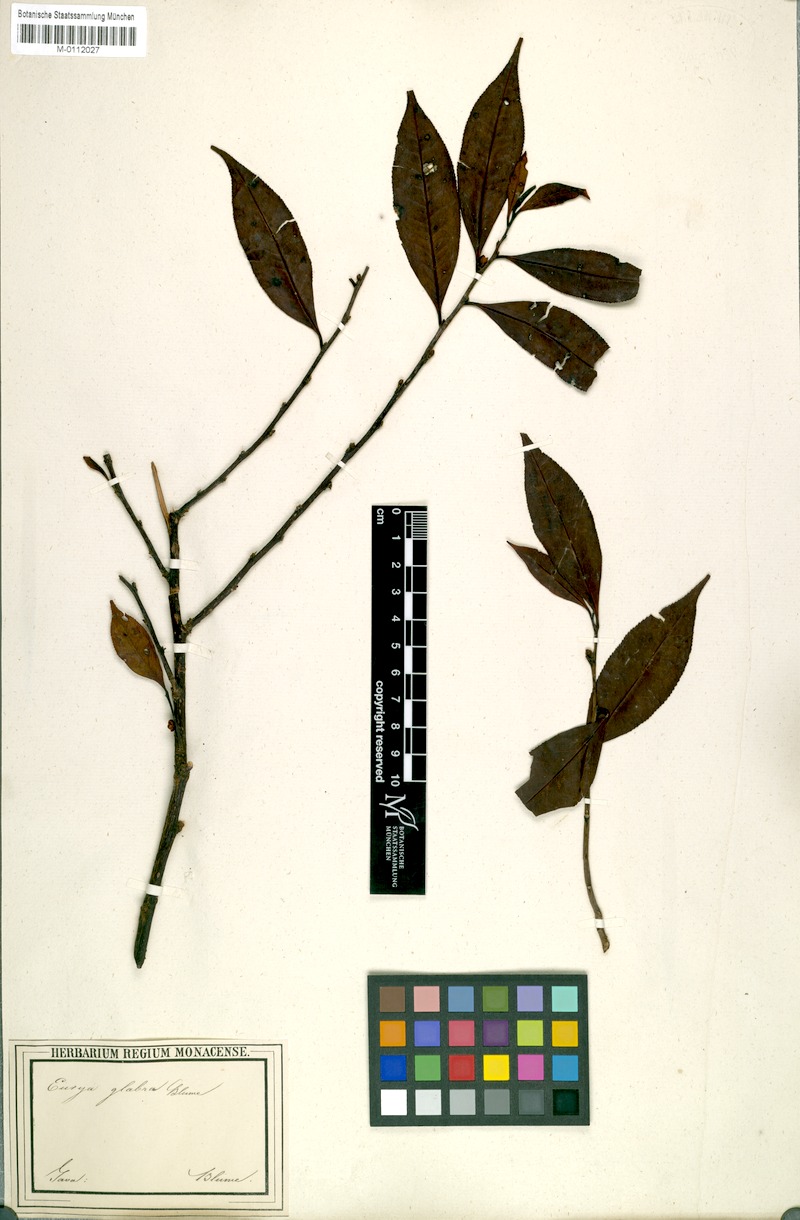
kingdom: Plantae
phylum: Tracheophyta
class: Magnoliopsida
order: Ericales
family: Pentaphylacaceae
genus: Eurya
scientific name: Eurya glabra
